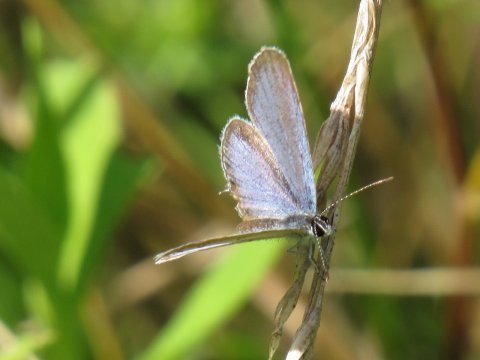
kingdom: Animalia
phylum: Arthropoda
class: Insecta
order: Lepidoptera
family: Lycaenidae
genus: Elkalyce
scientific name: Elkalyce comyntas
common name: Eastern Tailed-Blue
